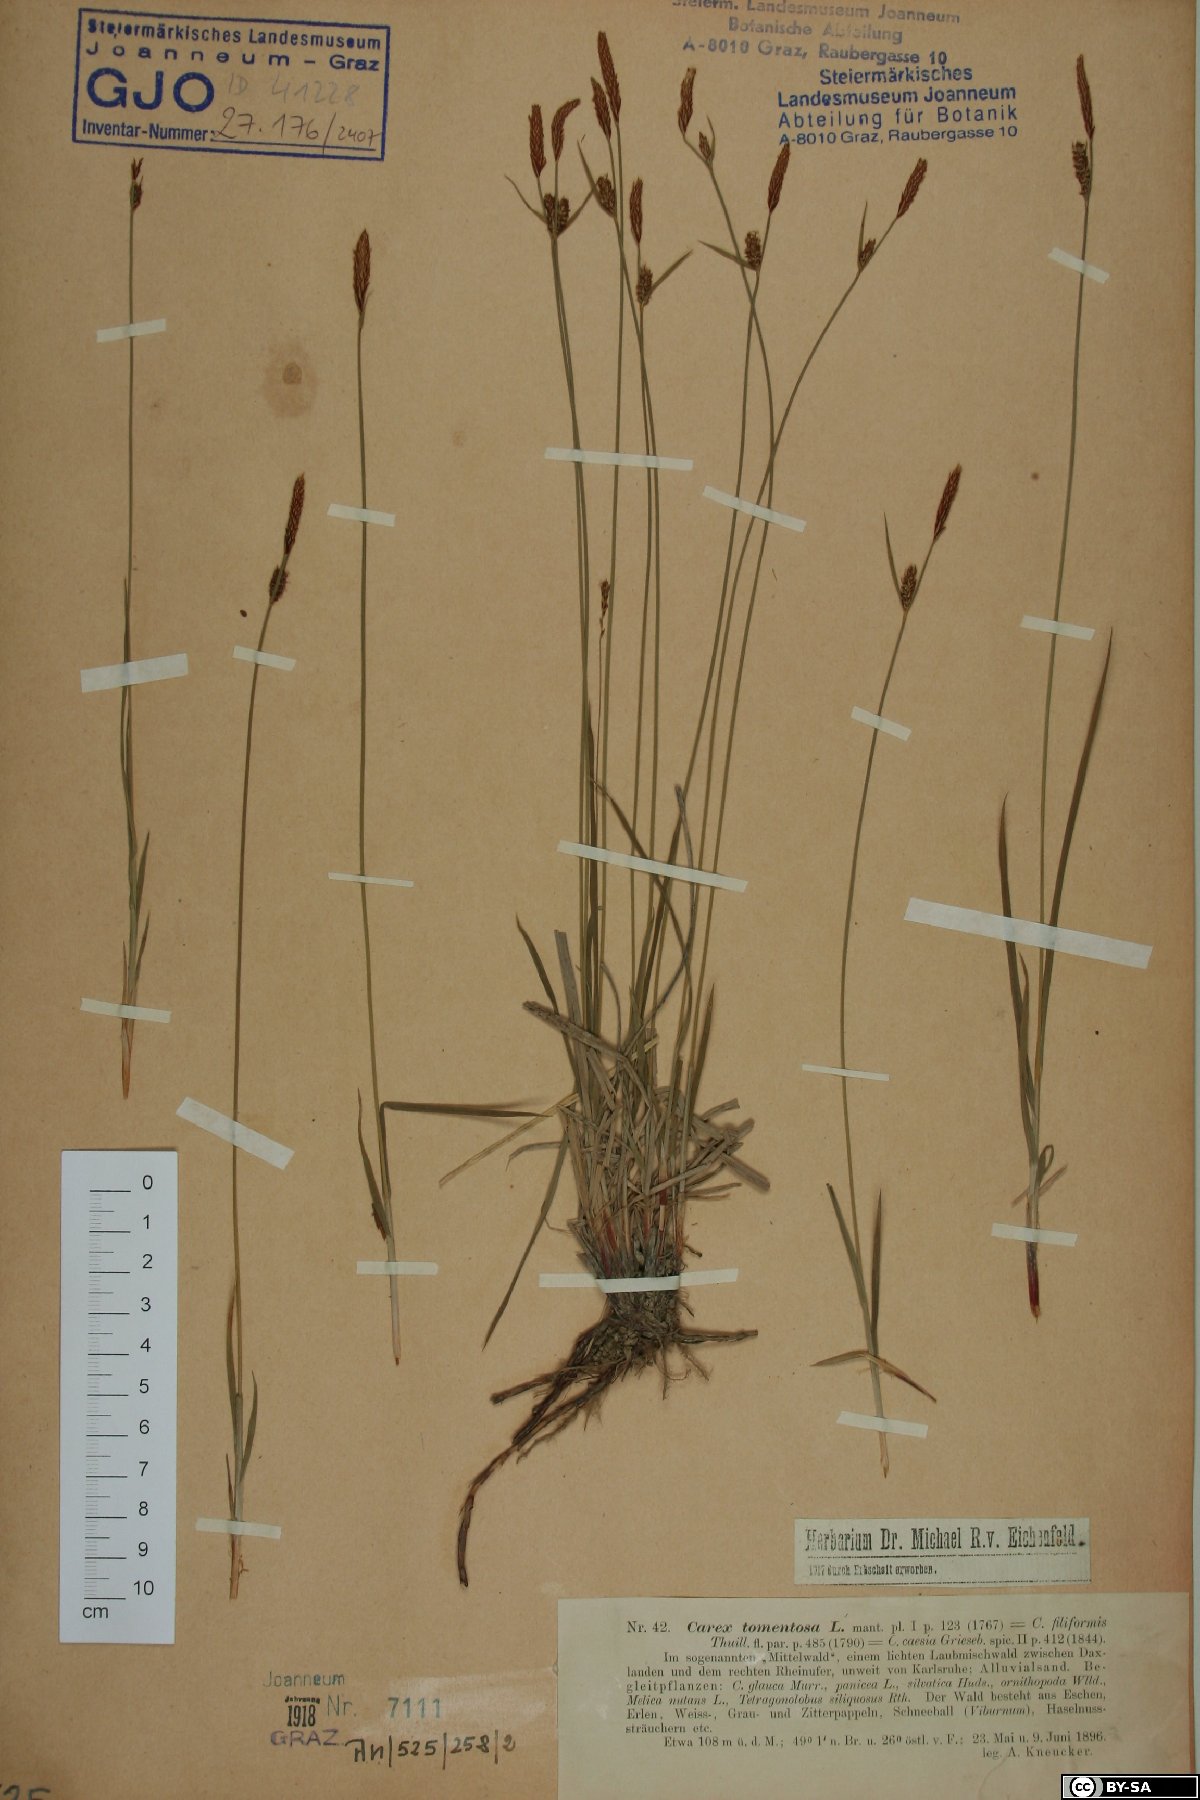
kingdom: Plantae
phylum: Tracheophyta
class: Liliopsida
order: Poales
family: Cyperaceae
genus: Carex
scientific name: Carex tomentosa
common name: Downy-fruited sedge
